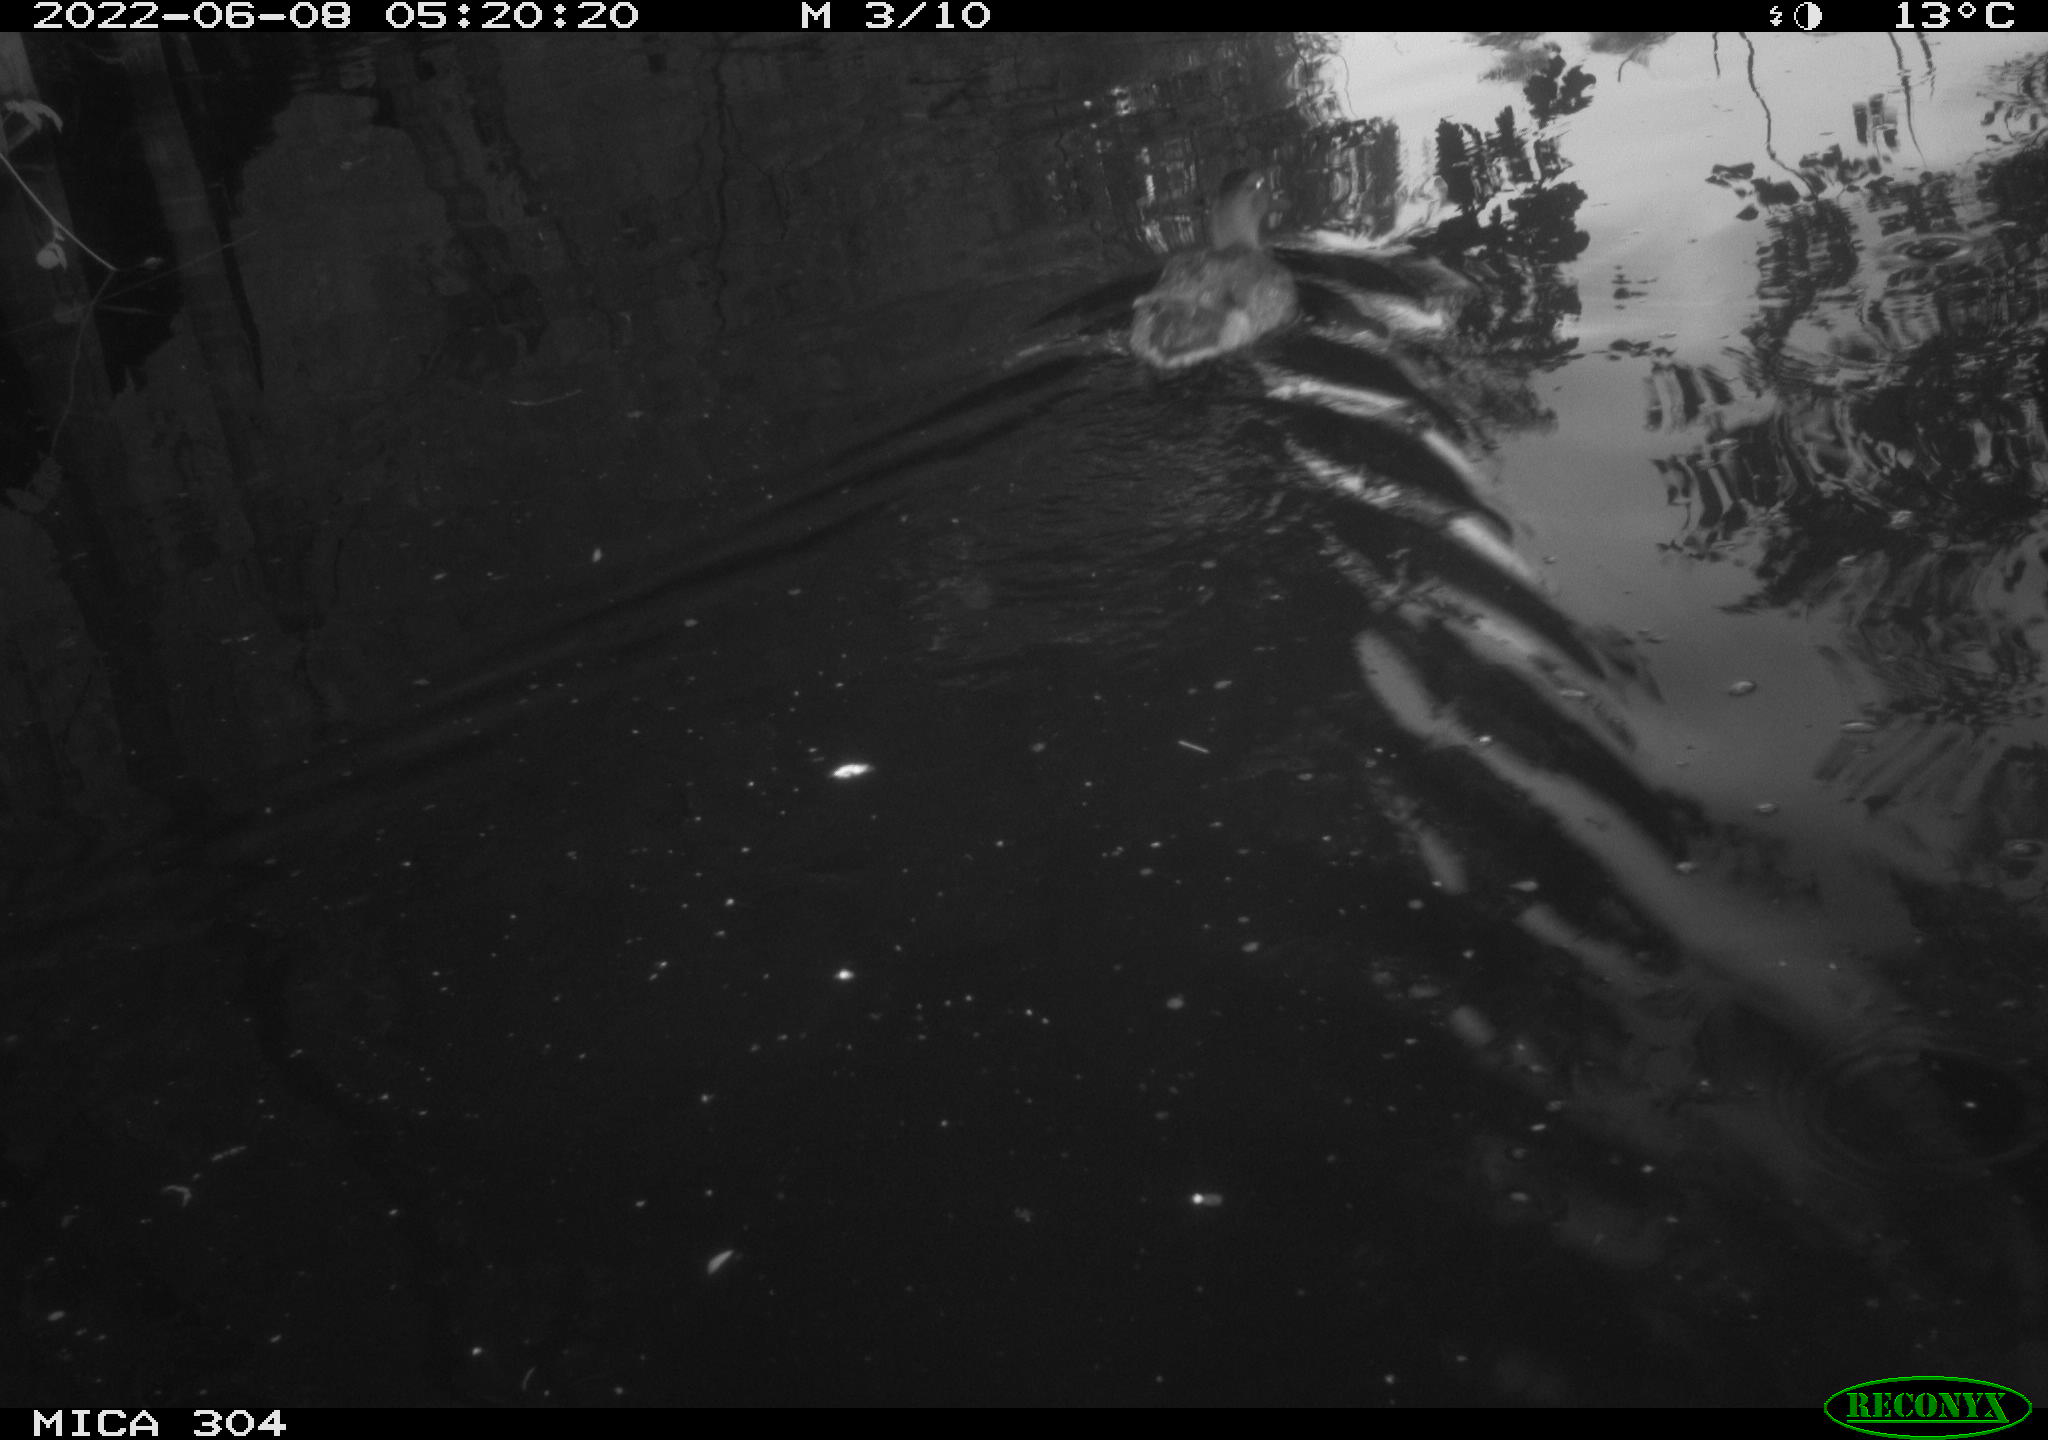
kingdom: Animalia
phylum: Chordata
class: Aves
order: Anseriformes
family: Anatidae
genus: Anas
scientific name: Anas platyrhynchos
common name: Mallard
